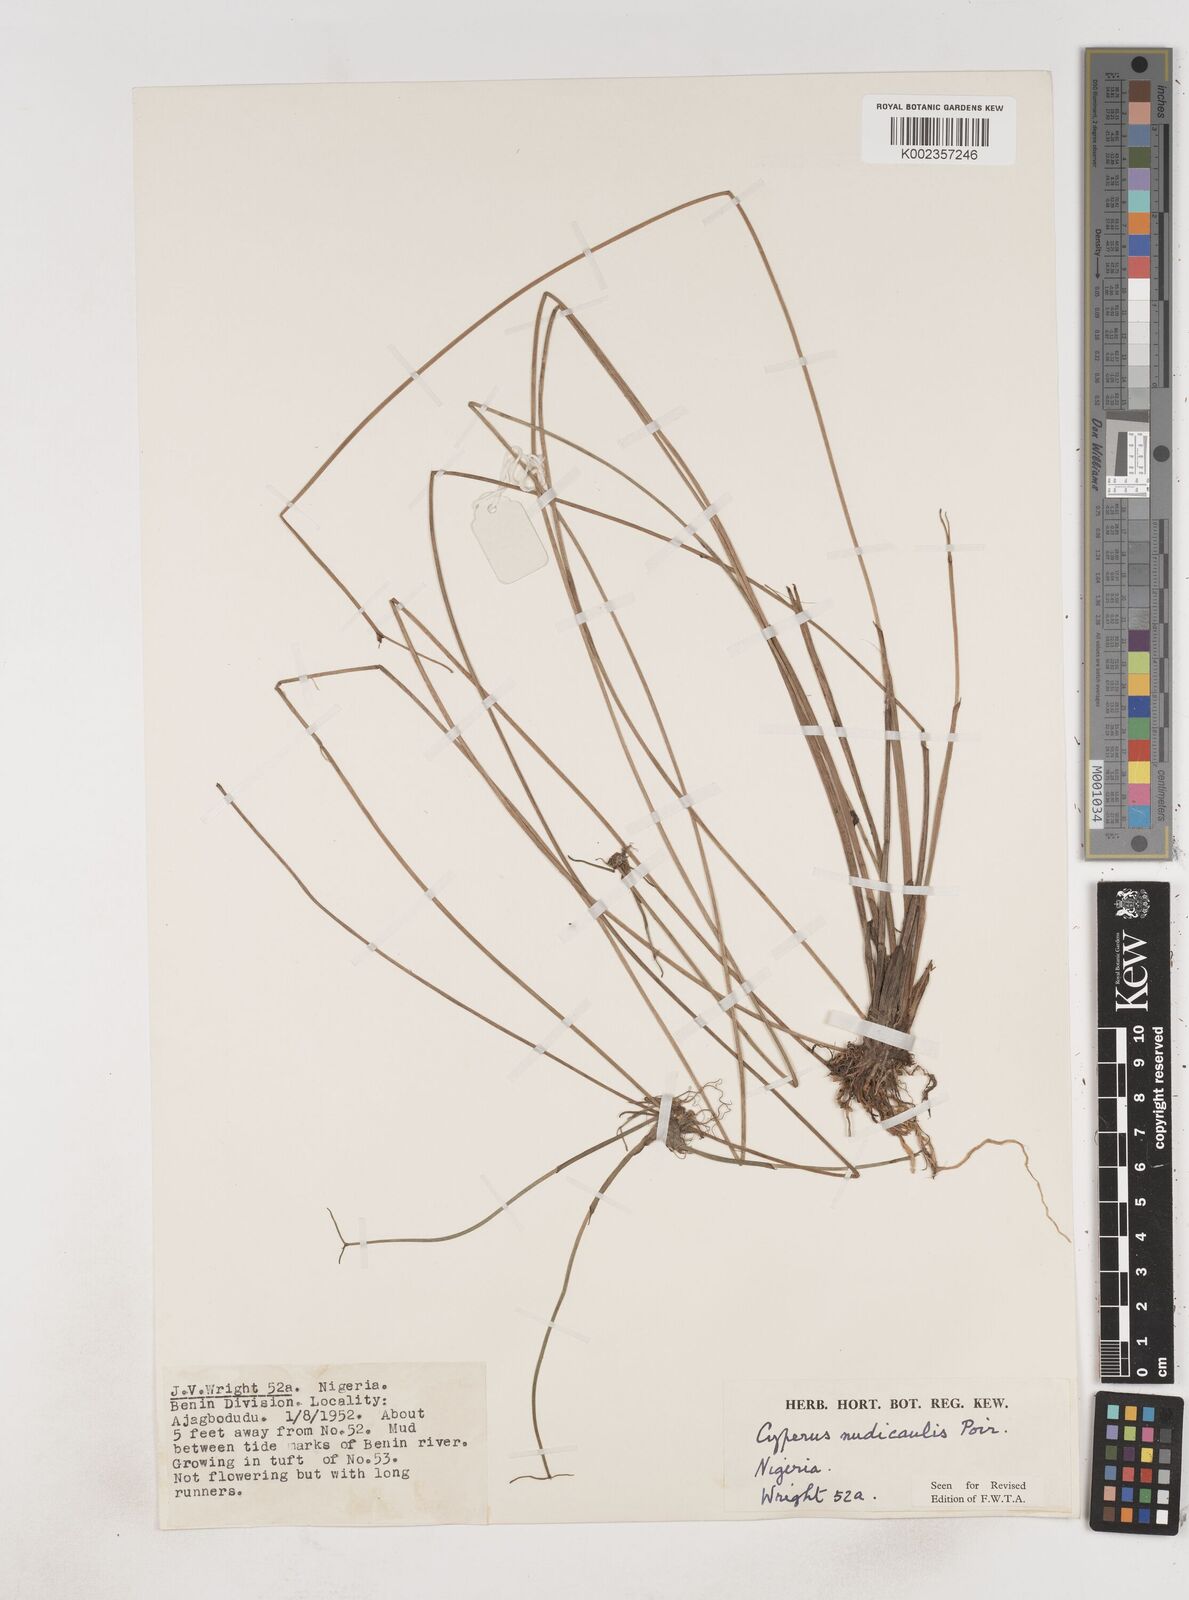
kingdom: Plantae
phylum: Tracheophyta
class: Liliopsida
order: Poales
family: Cyperaceae
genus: Cyperus
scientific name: Cyperus pectinatus
